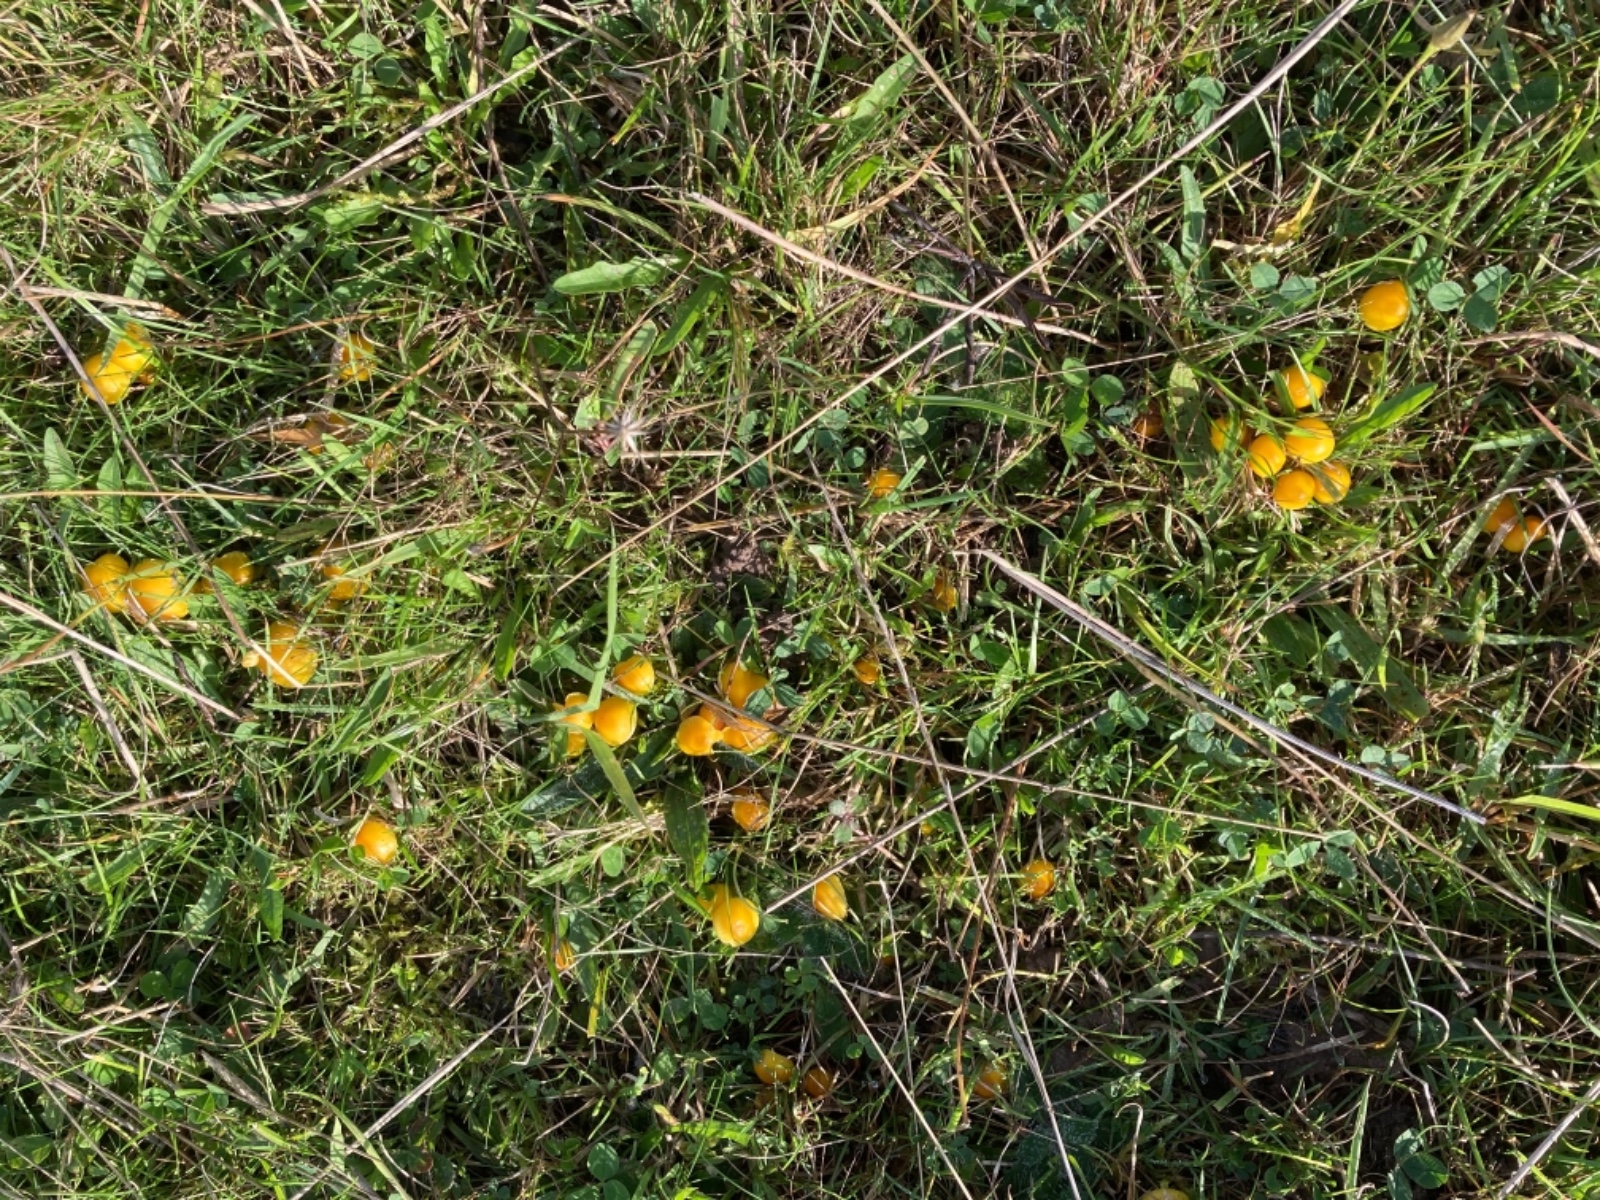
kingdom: Fungi
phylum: Basidiomycota
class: Agaricomycetes
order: Agaricales
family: Hygrophoraceae
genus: Hygrocybe
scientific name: Hygrocybe ceracea
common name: voksgul vokshat
